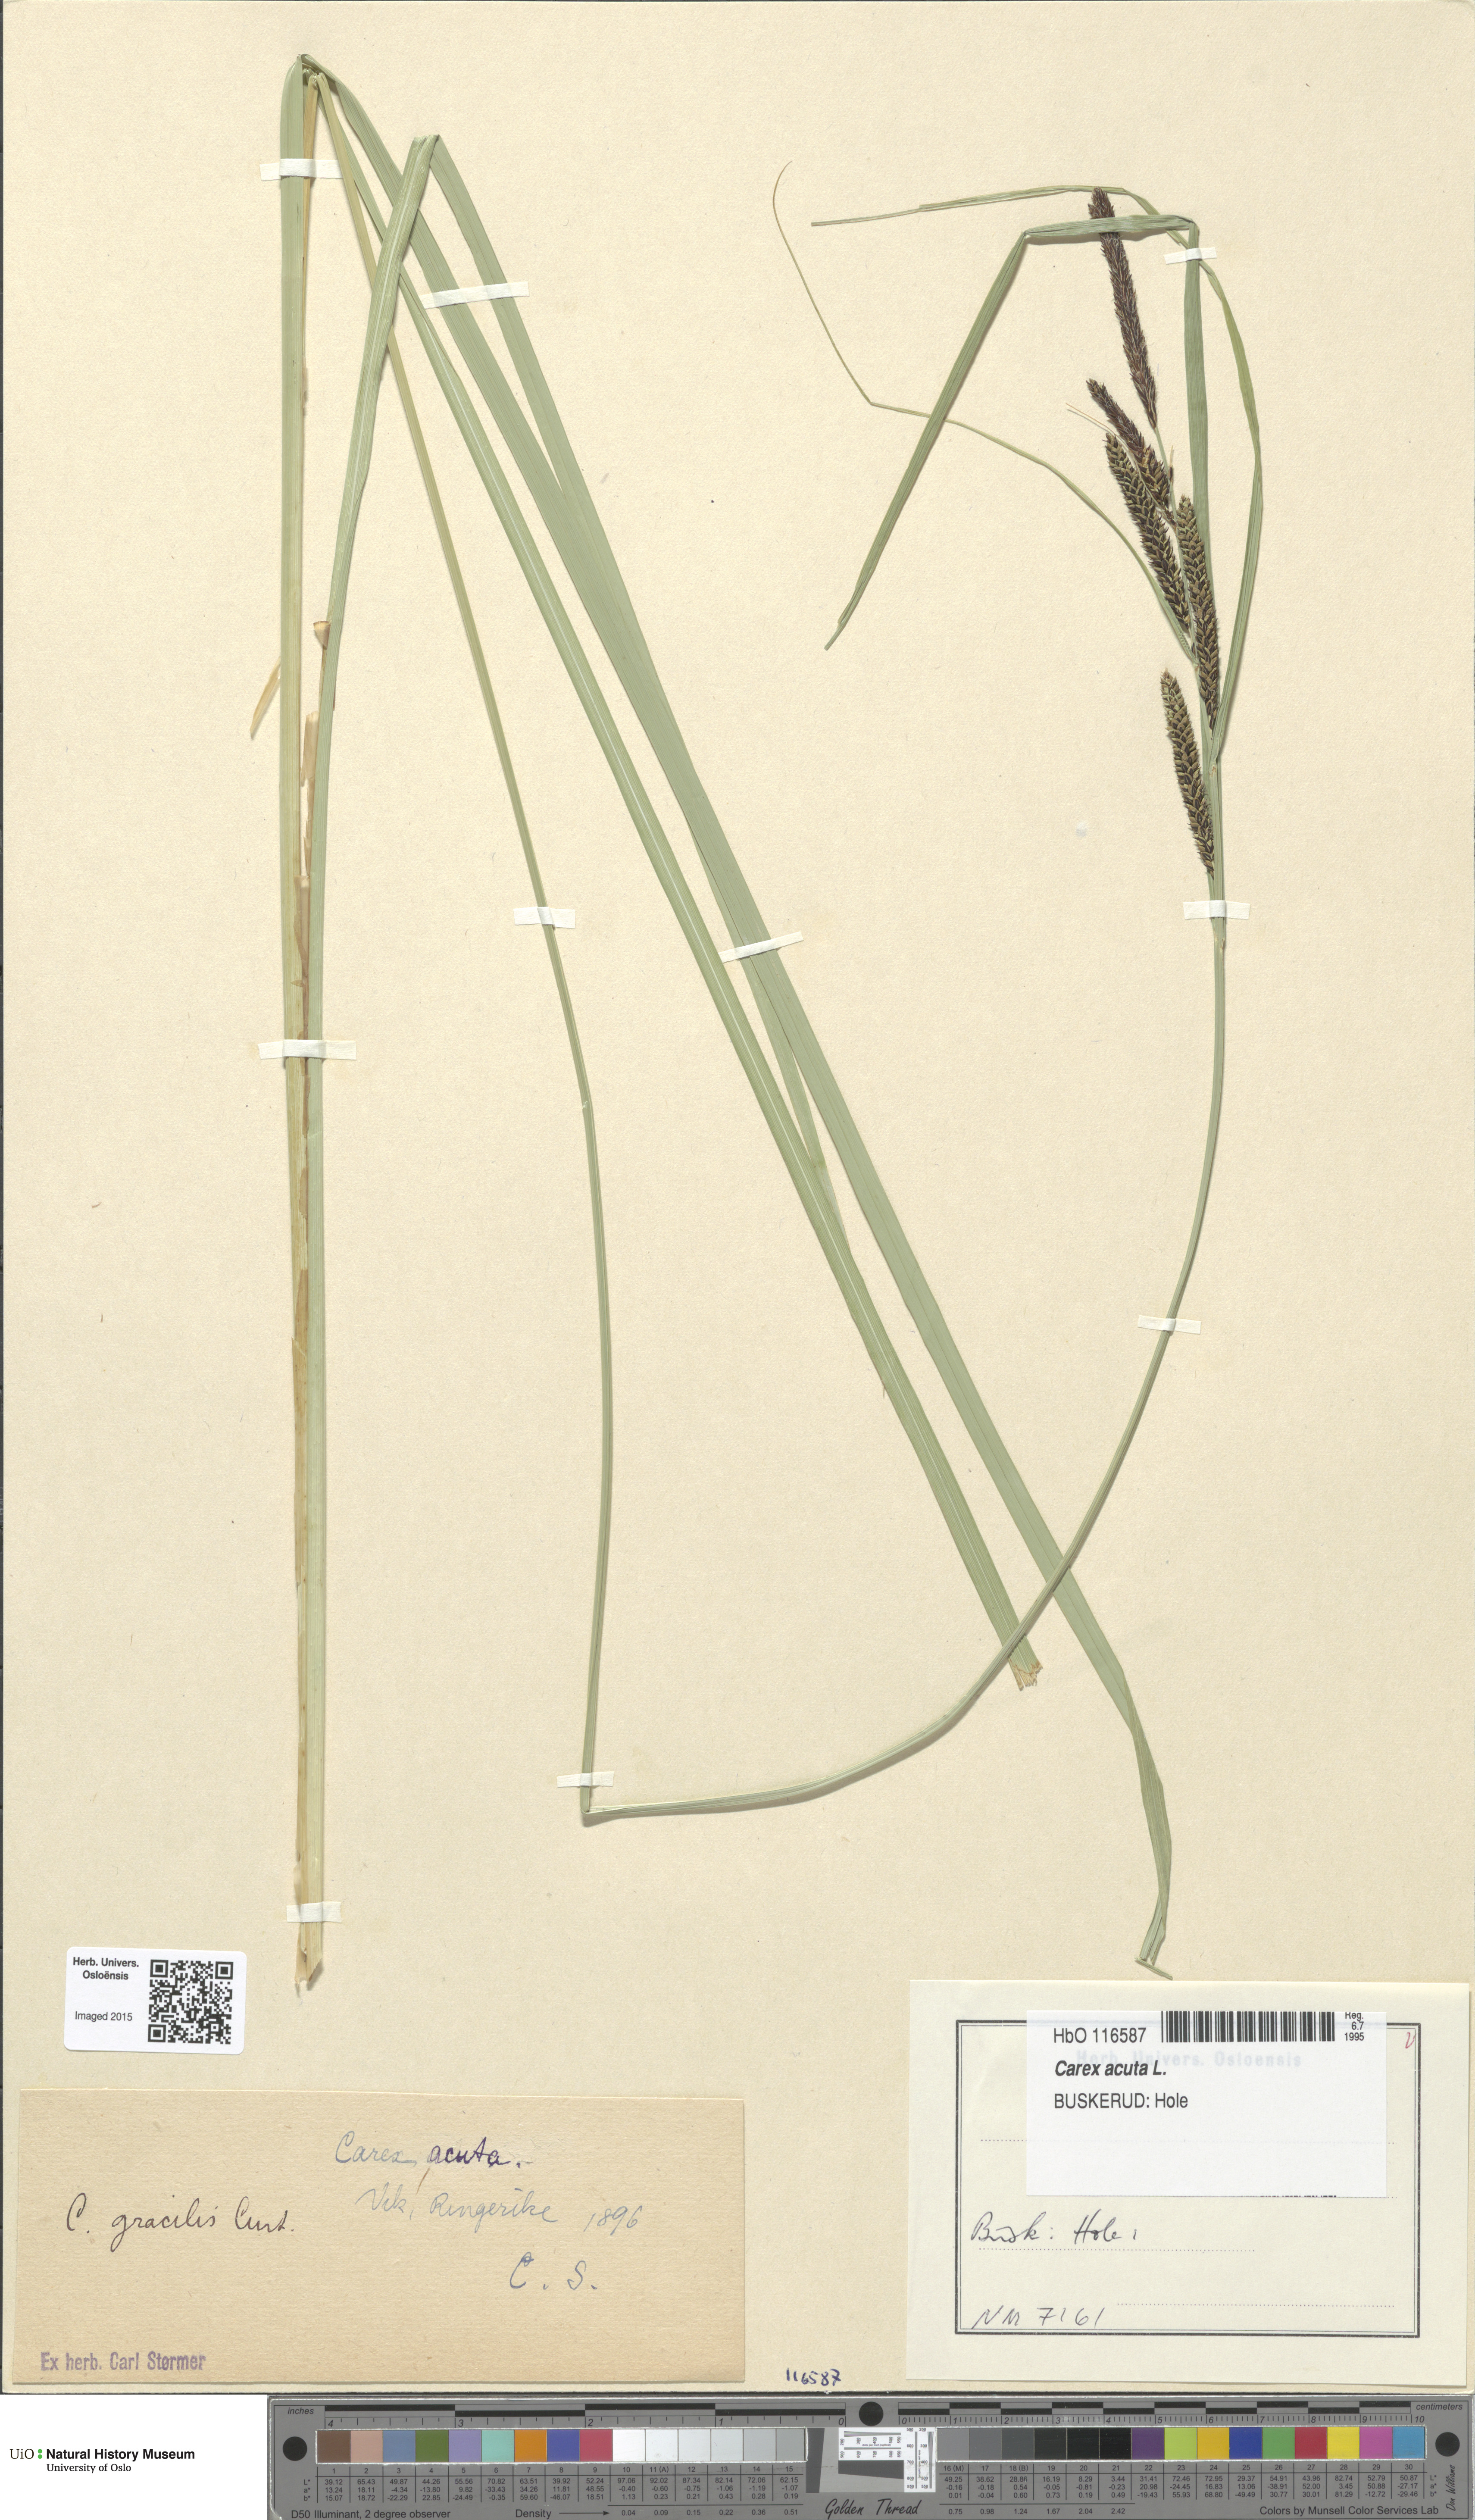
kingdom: Plantae
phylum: Tracheophyta
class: Liliopsida
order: Poales
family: Cyperaceae
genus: Carex
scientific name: Carex acuta
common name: Slender tufted-sedge
